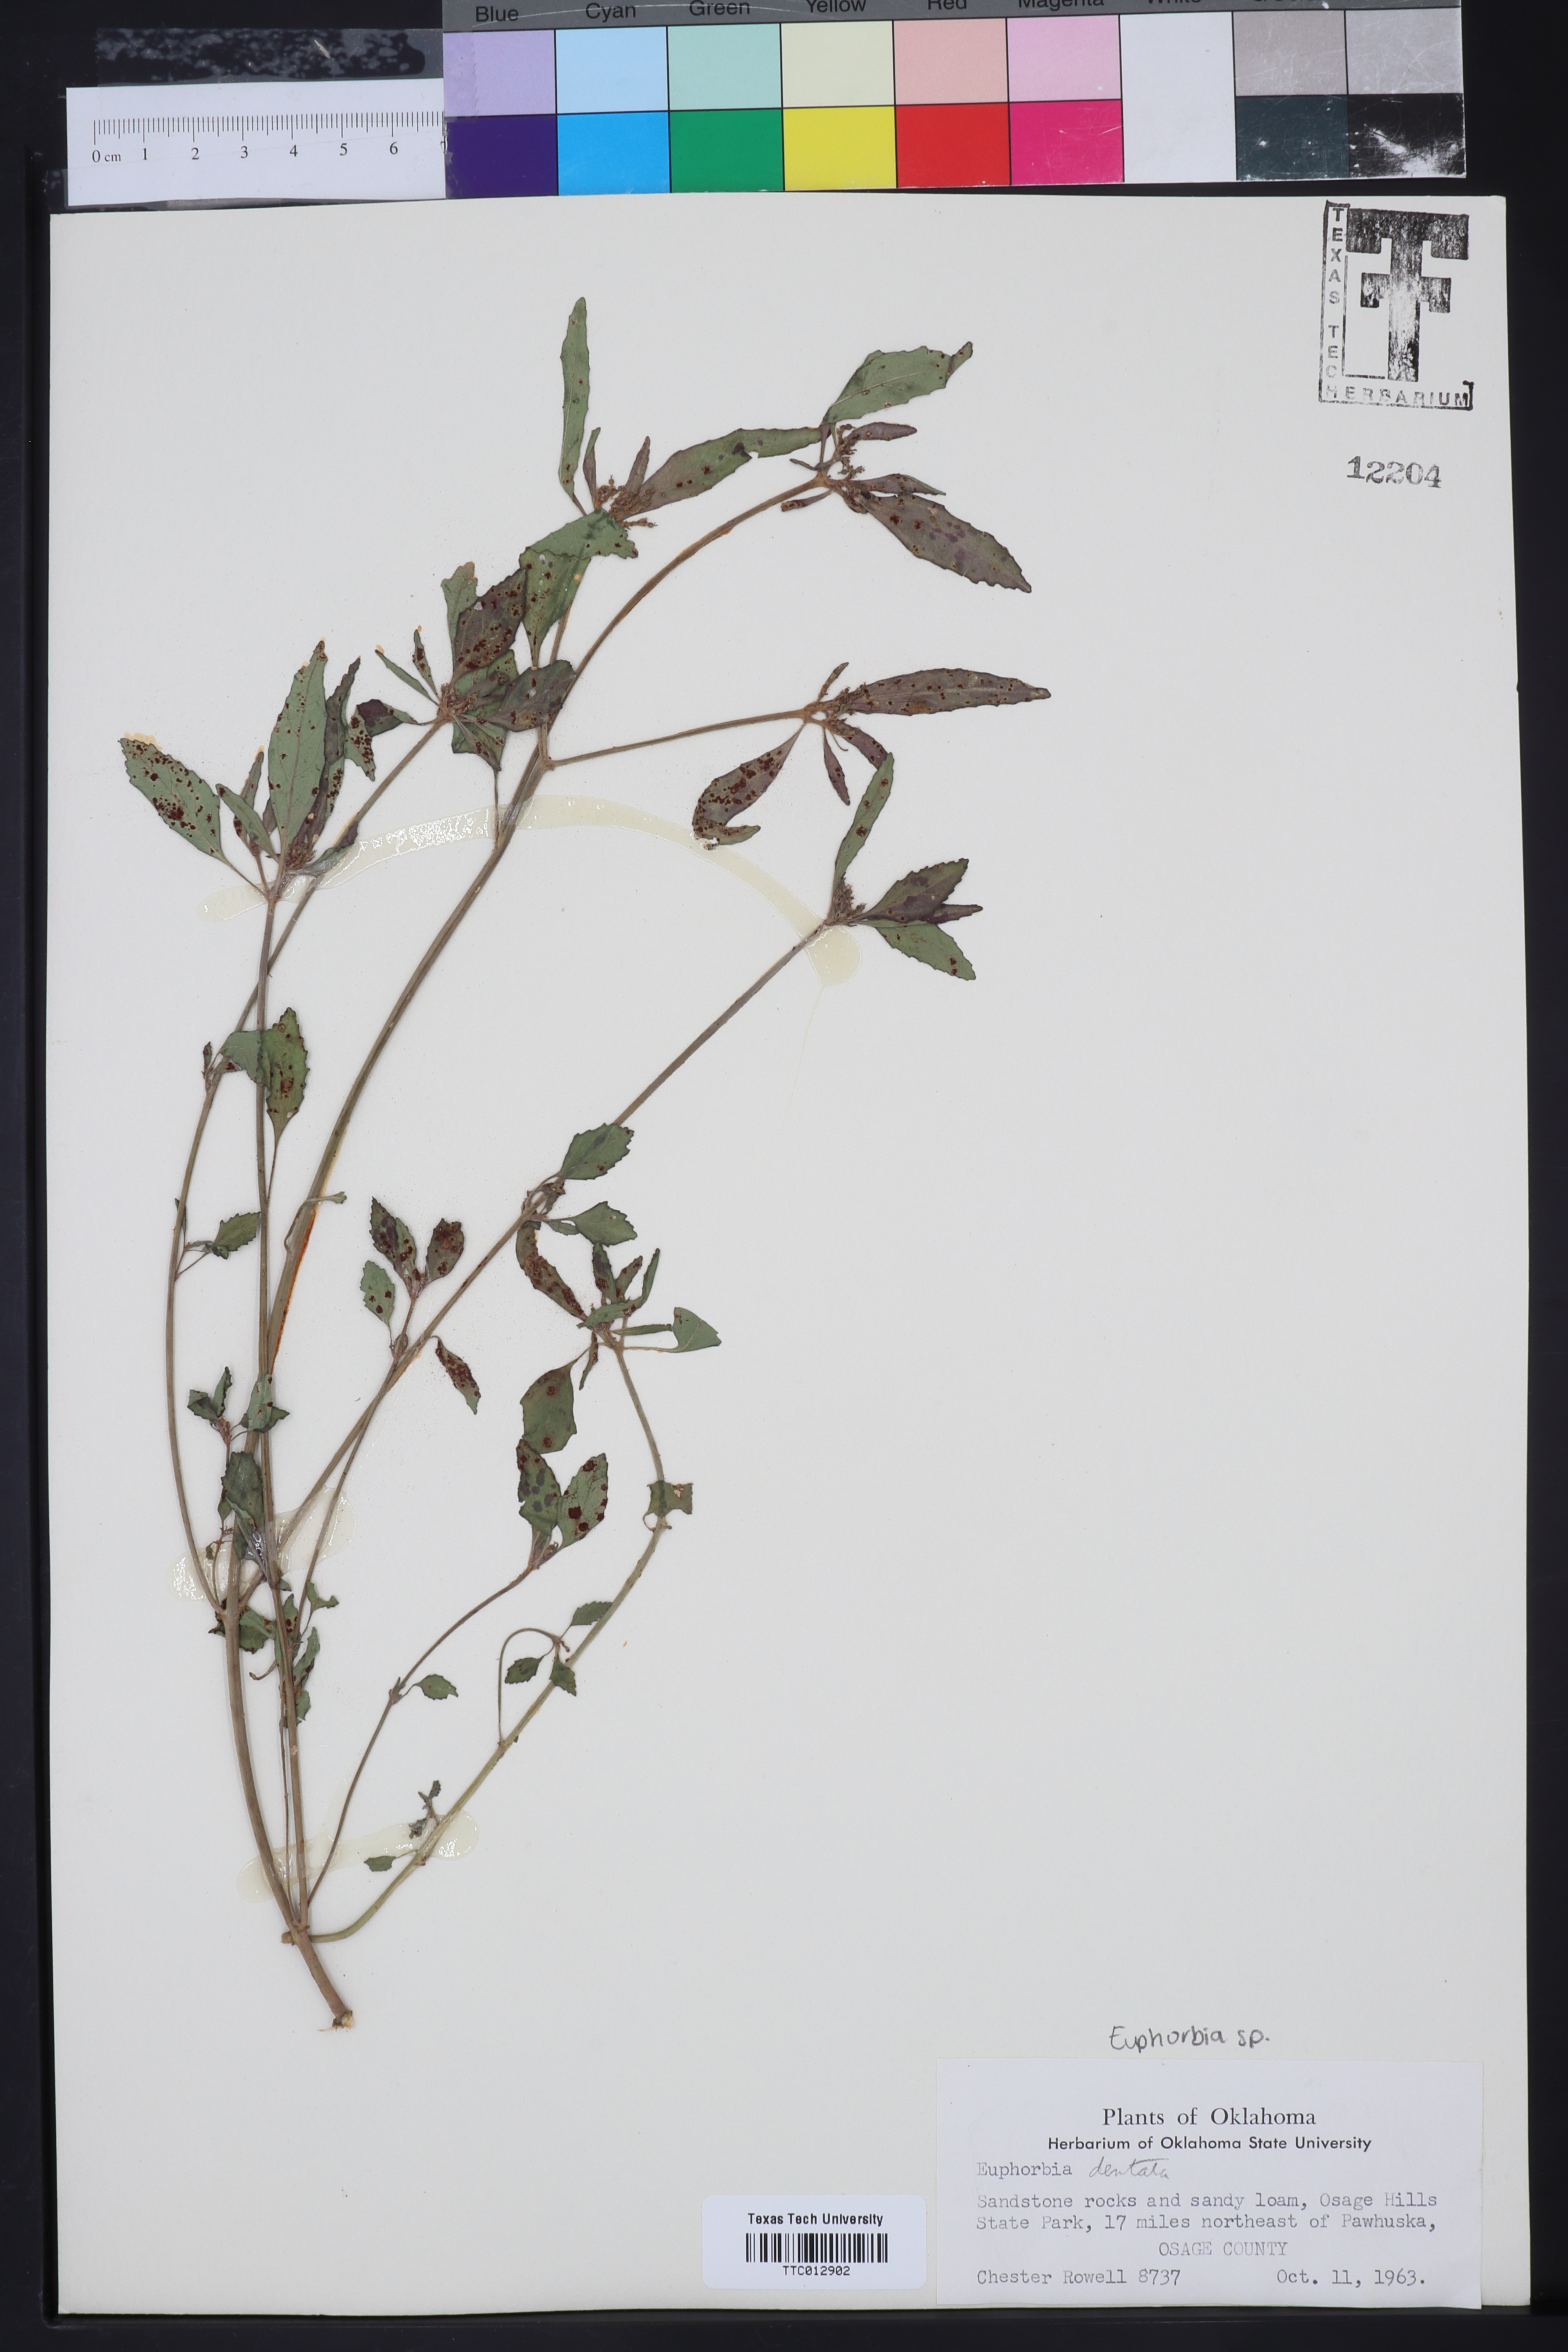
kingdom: Plantae
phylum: Tracheophyta
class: Magnoliopsida
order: Malpighiales
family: Euphorbiaceae
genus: Euphorbia
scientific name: Euphorbia
